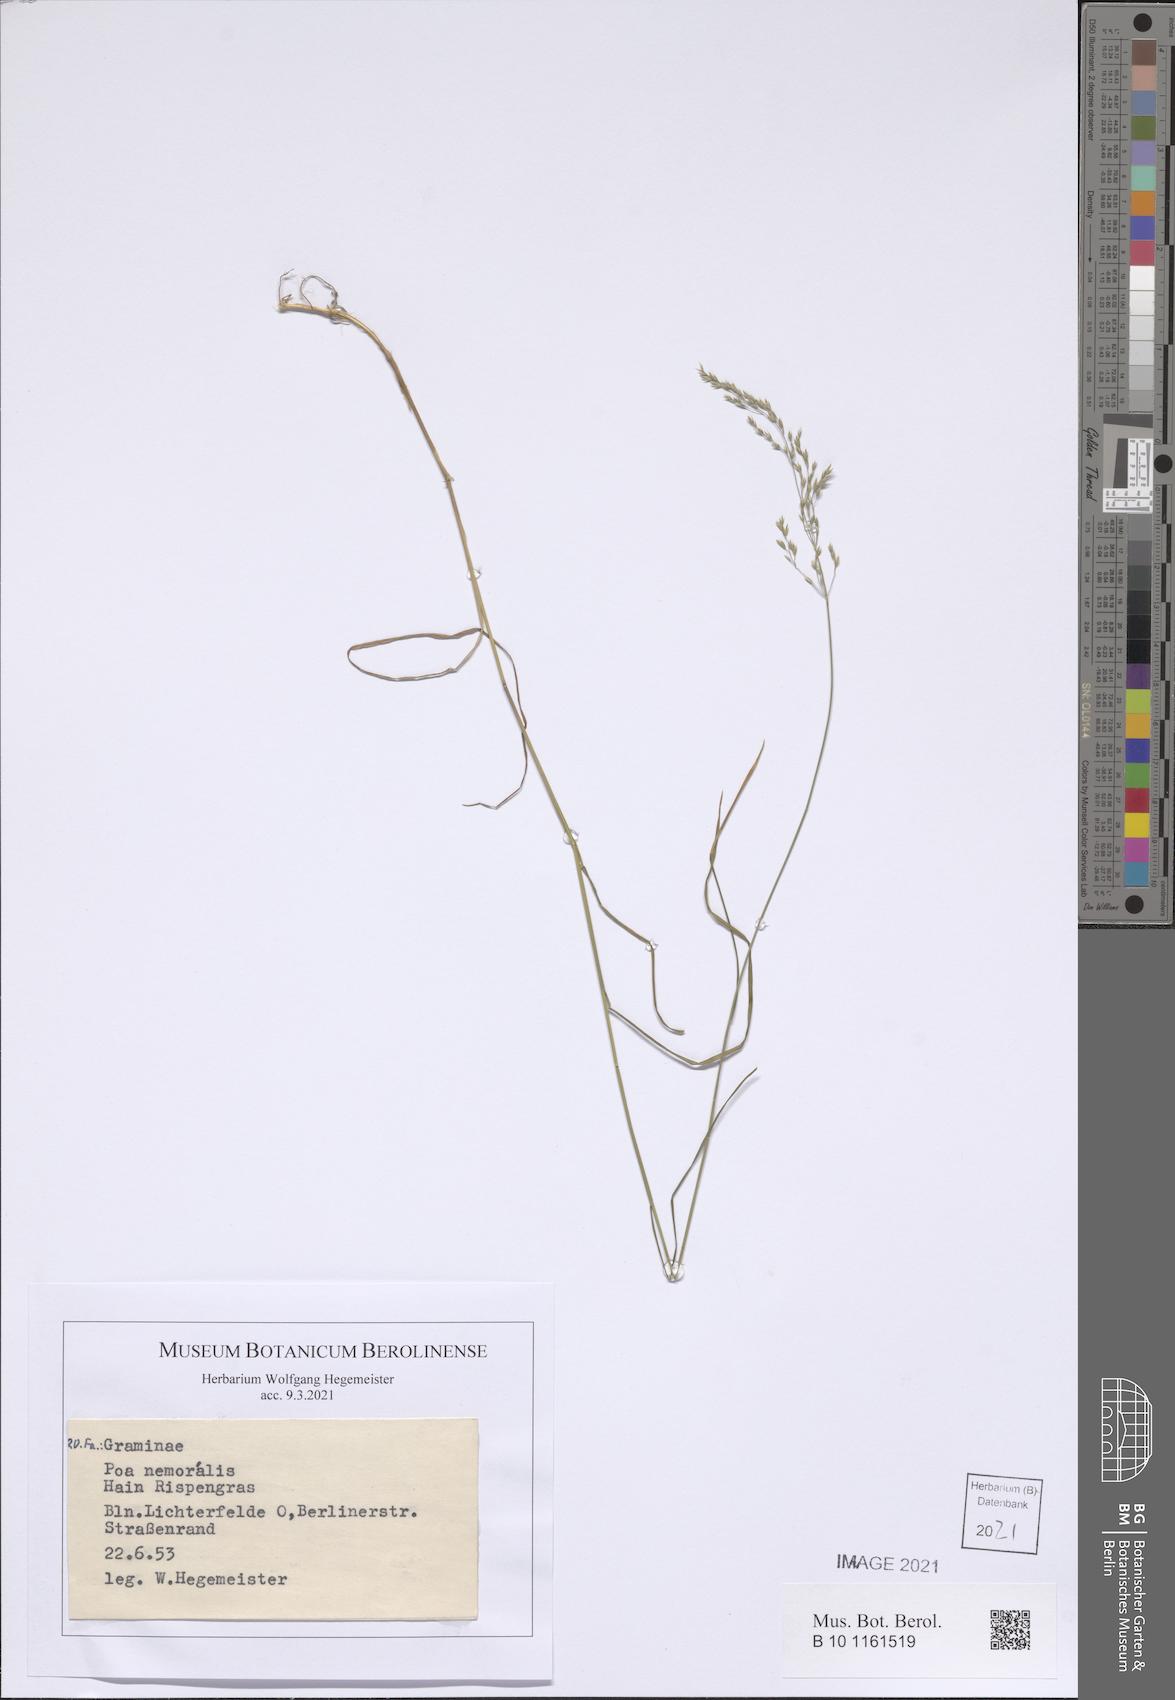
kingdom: Plantae
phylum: Tracheophyta
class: Liliopsida
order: Poales
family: Poaceae
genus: Poa
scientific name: Poa nemoralis
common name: Wood bluegrass
